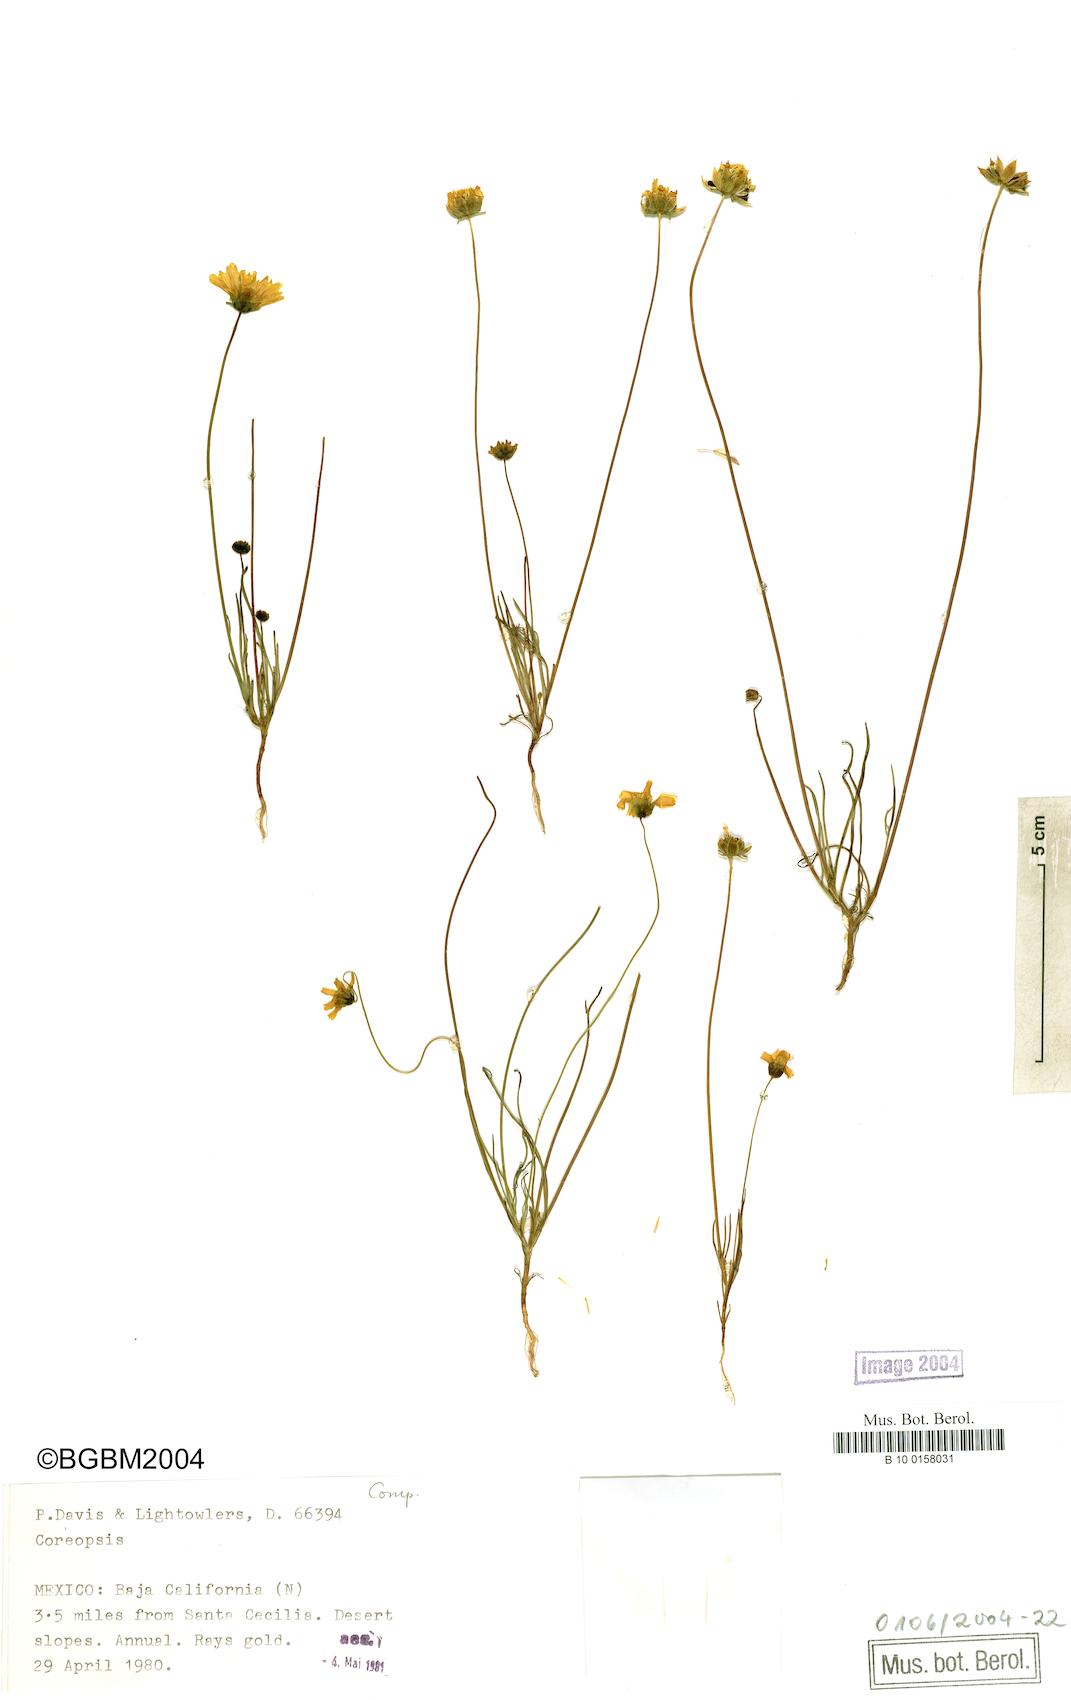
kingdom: Plantae
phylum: Tracheophyta
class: Magnoliopsida
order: Asterales
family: Asteraceae
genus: Coreopsis
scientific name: Coreopsis
